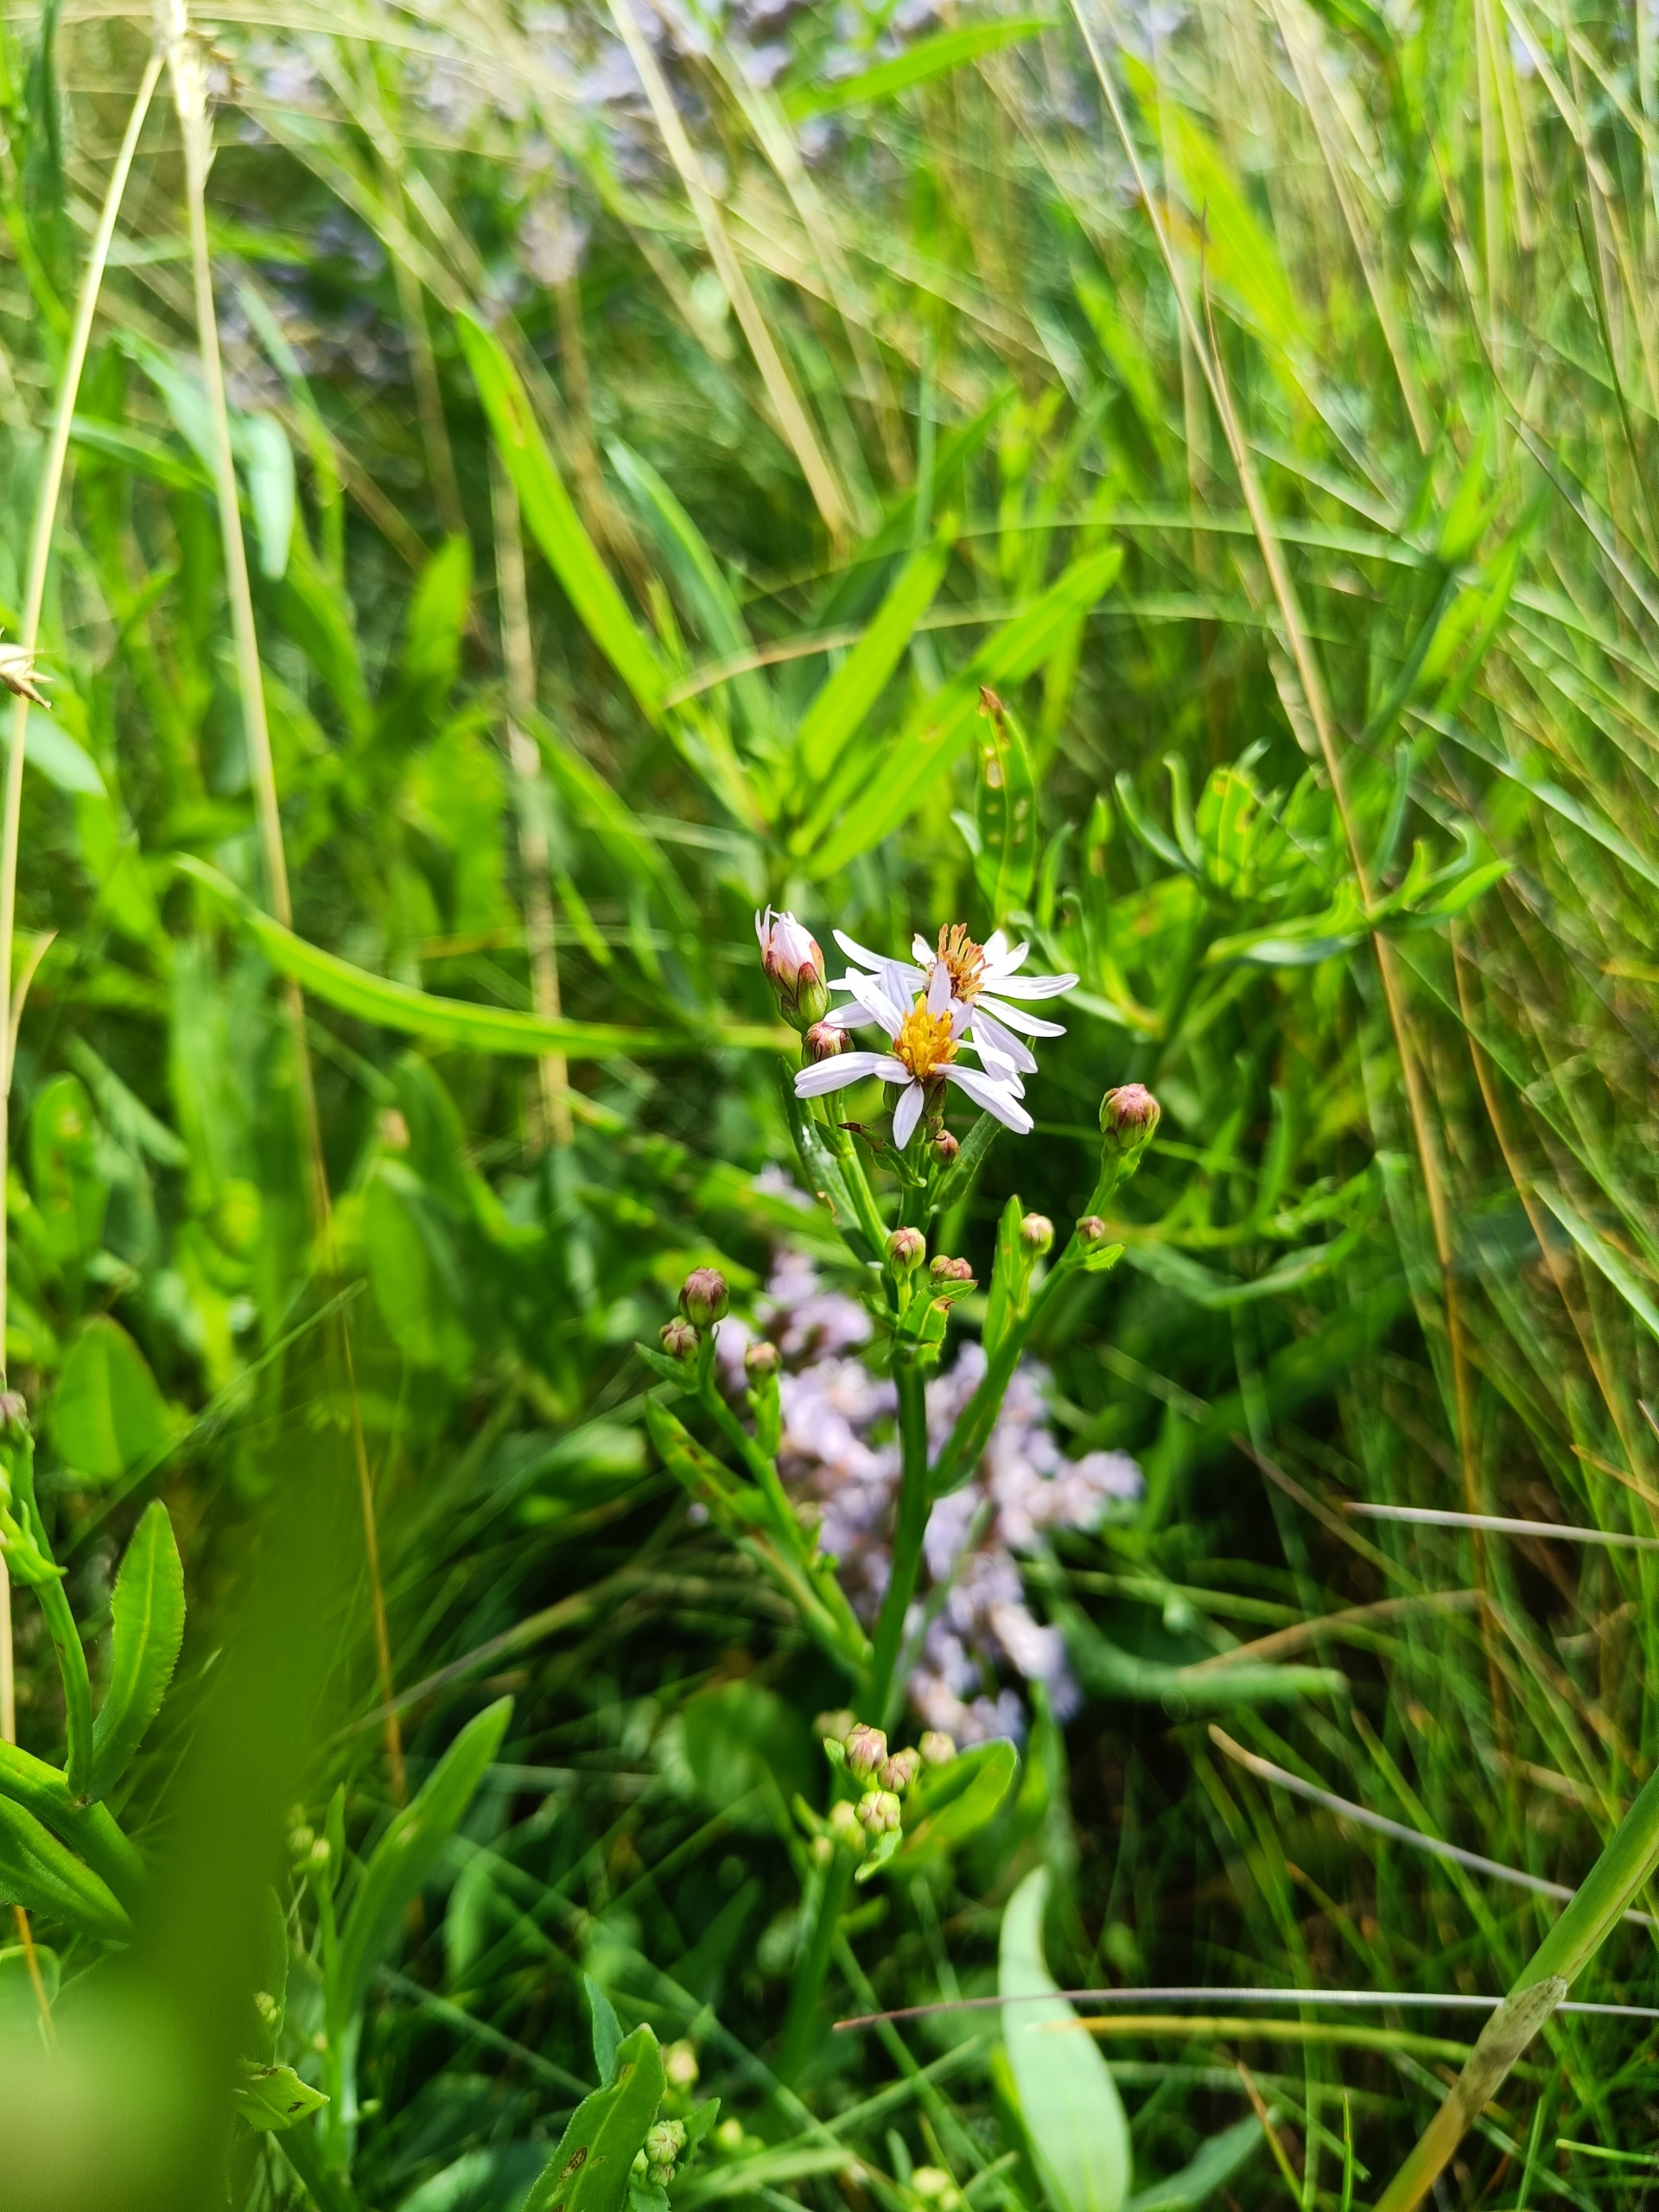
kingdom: Plantae
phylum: Tracheophyta
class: Magnoliopsida
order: Asterales
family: Asteraceae
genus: Tripolium
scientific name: Tripolium pannonicum
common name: Strandasters
